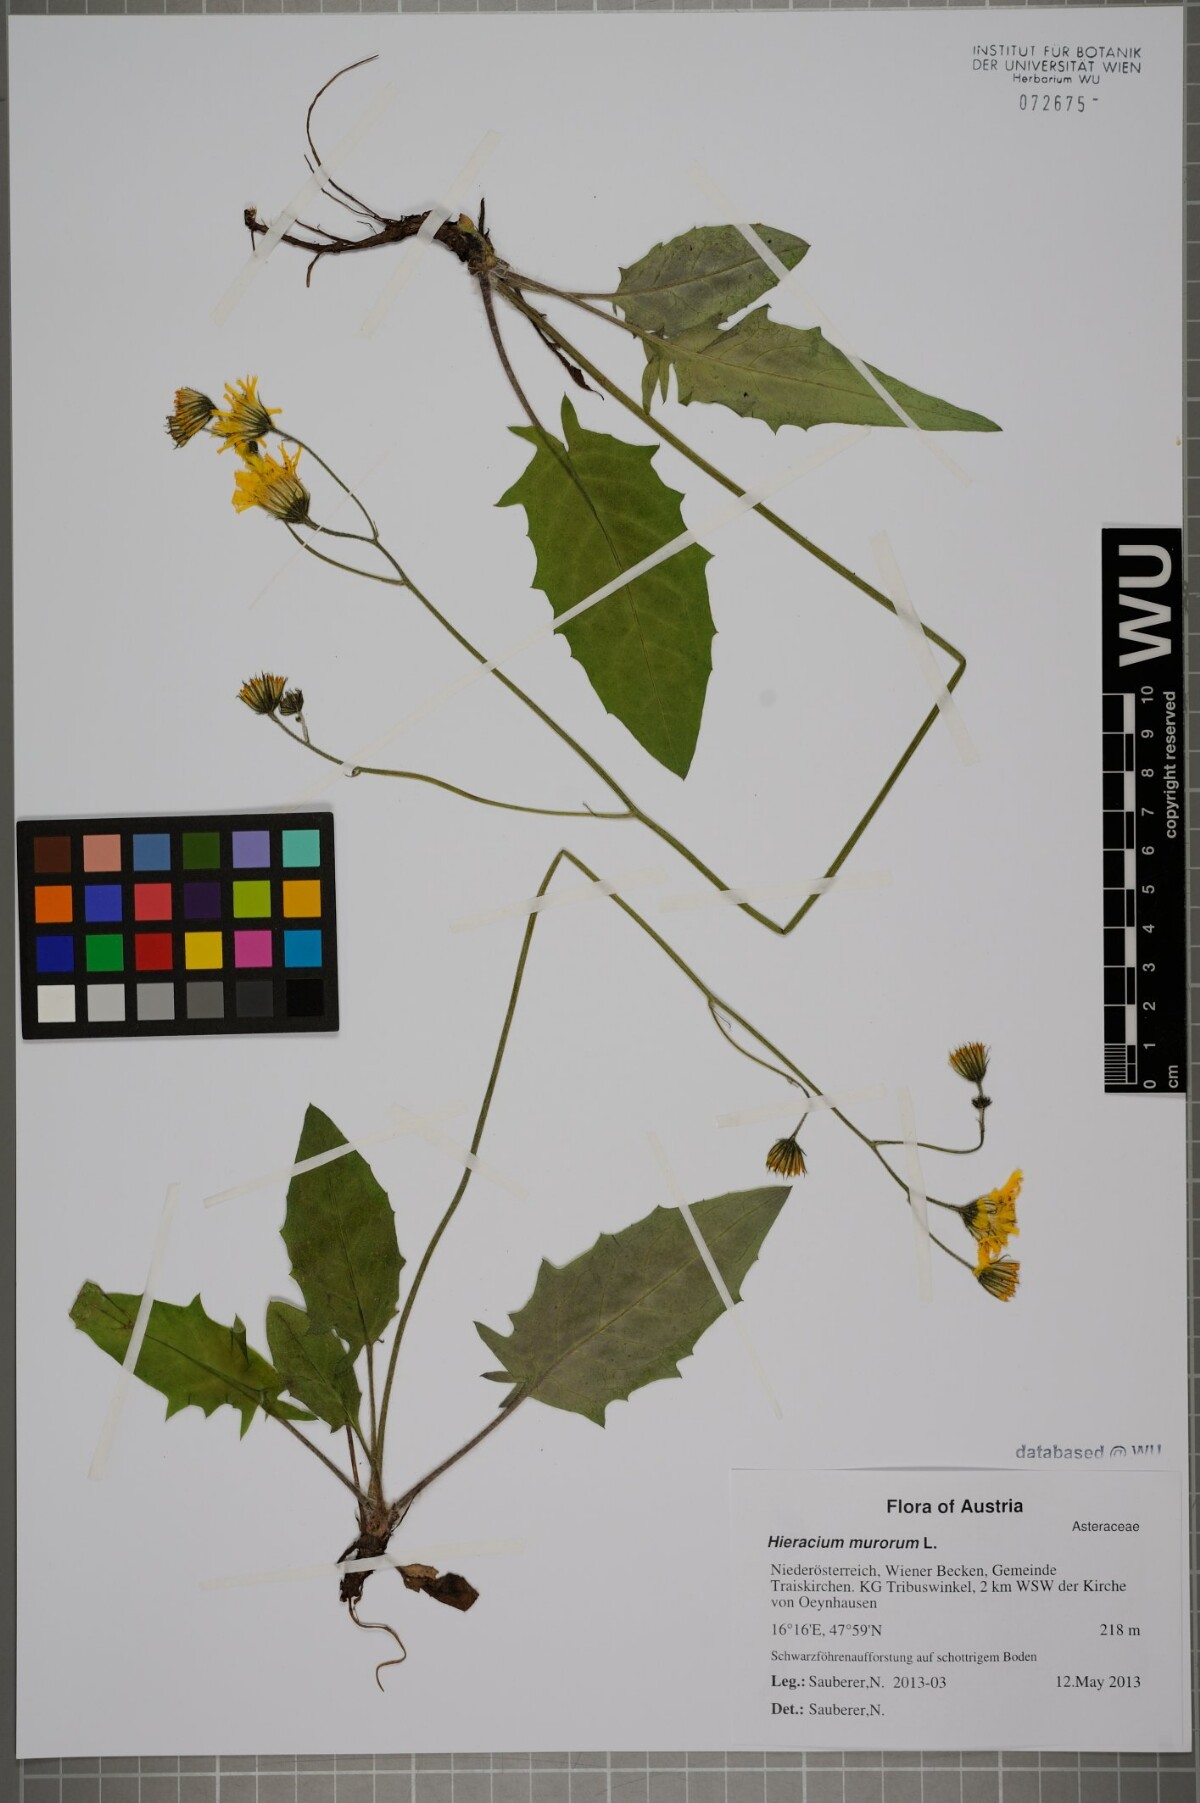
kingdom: Plantae
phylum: Tracheophyta
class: Magnoliopsida
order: Asterales
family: Asteraceae
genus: Hieracium
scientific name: Hieracium murorum
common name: Wall hawkweed
